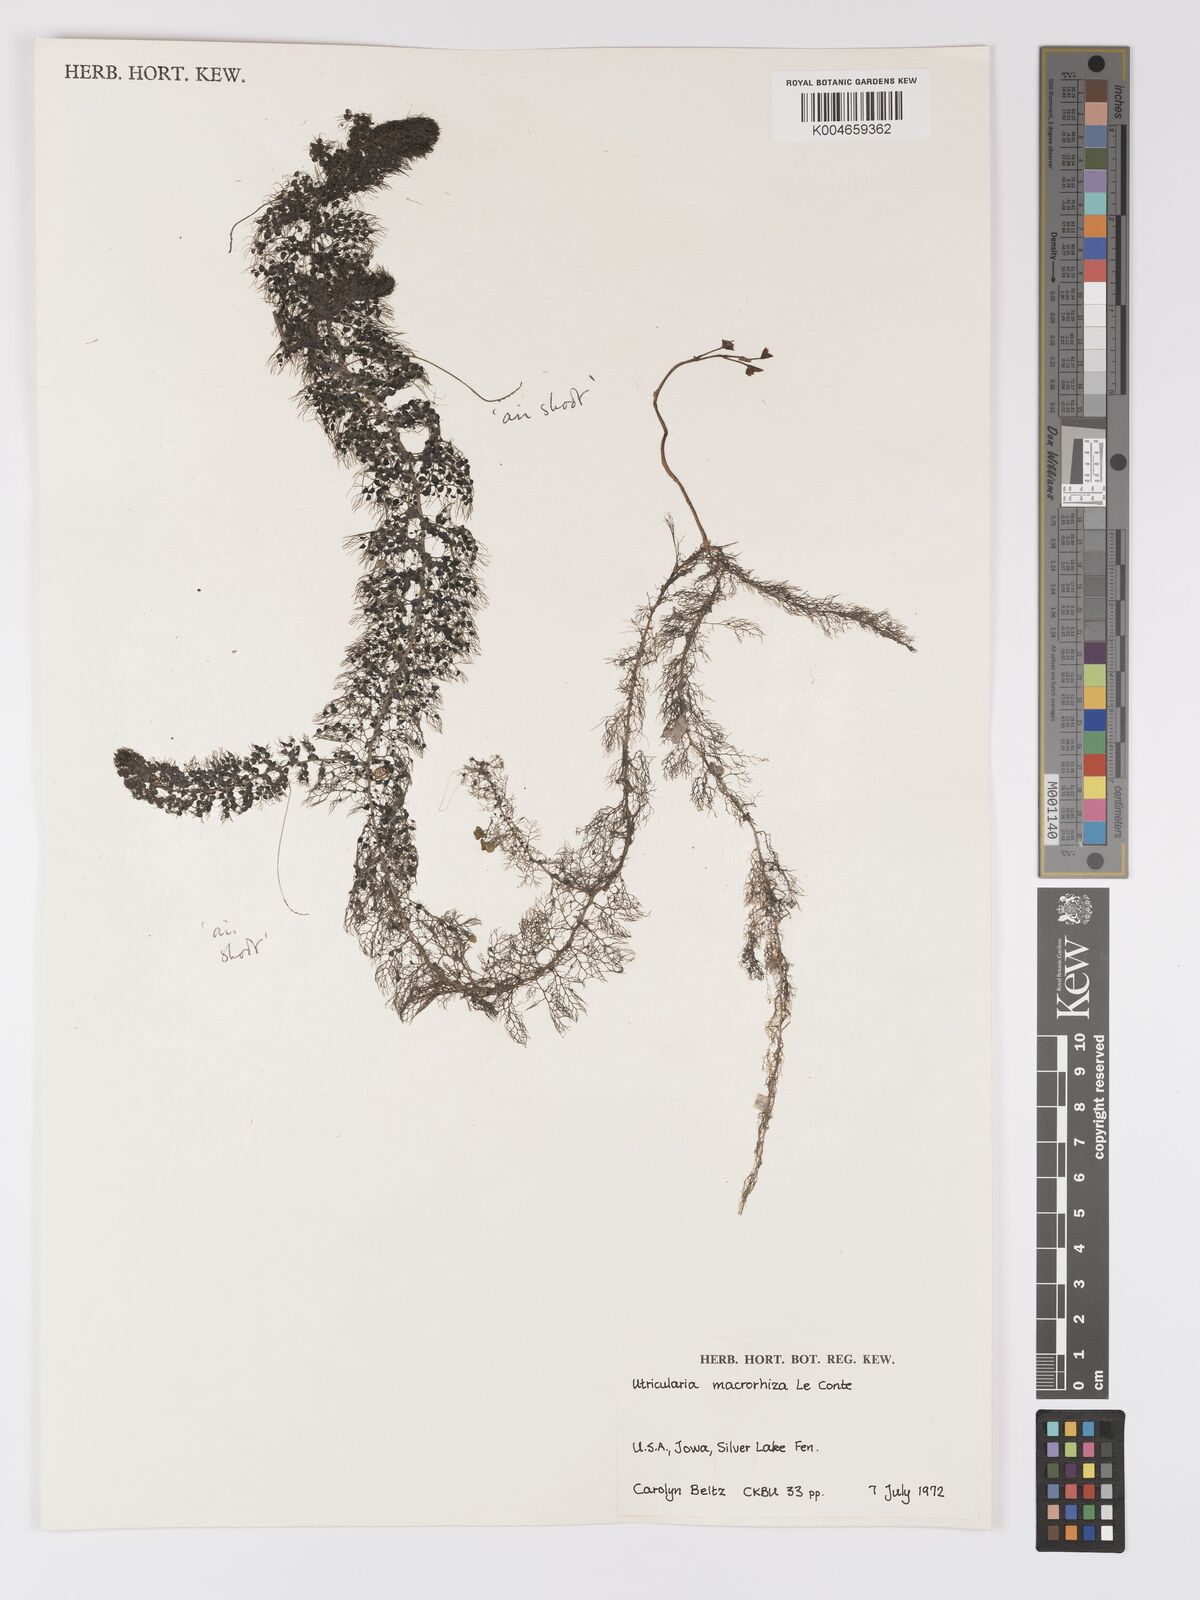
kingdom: Plantae
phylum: Tracheophyta
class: Magnoliopsida
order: Lamiales
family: Lentibulariaceae
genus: Utricularia
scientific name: Utricularia macrorhiza
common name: Common bladderwort
